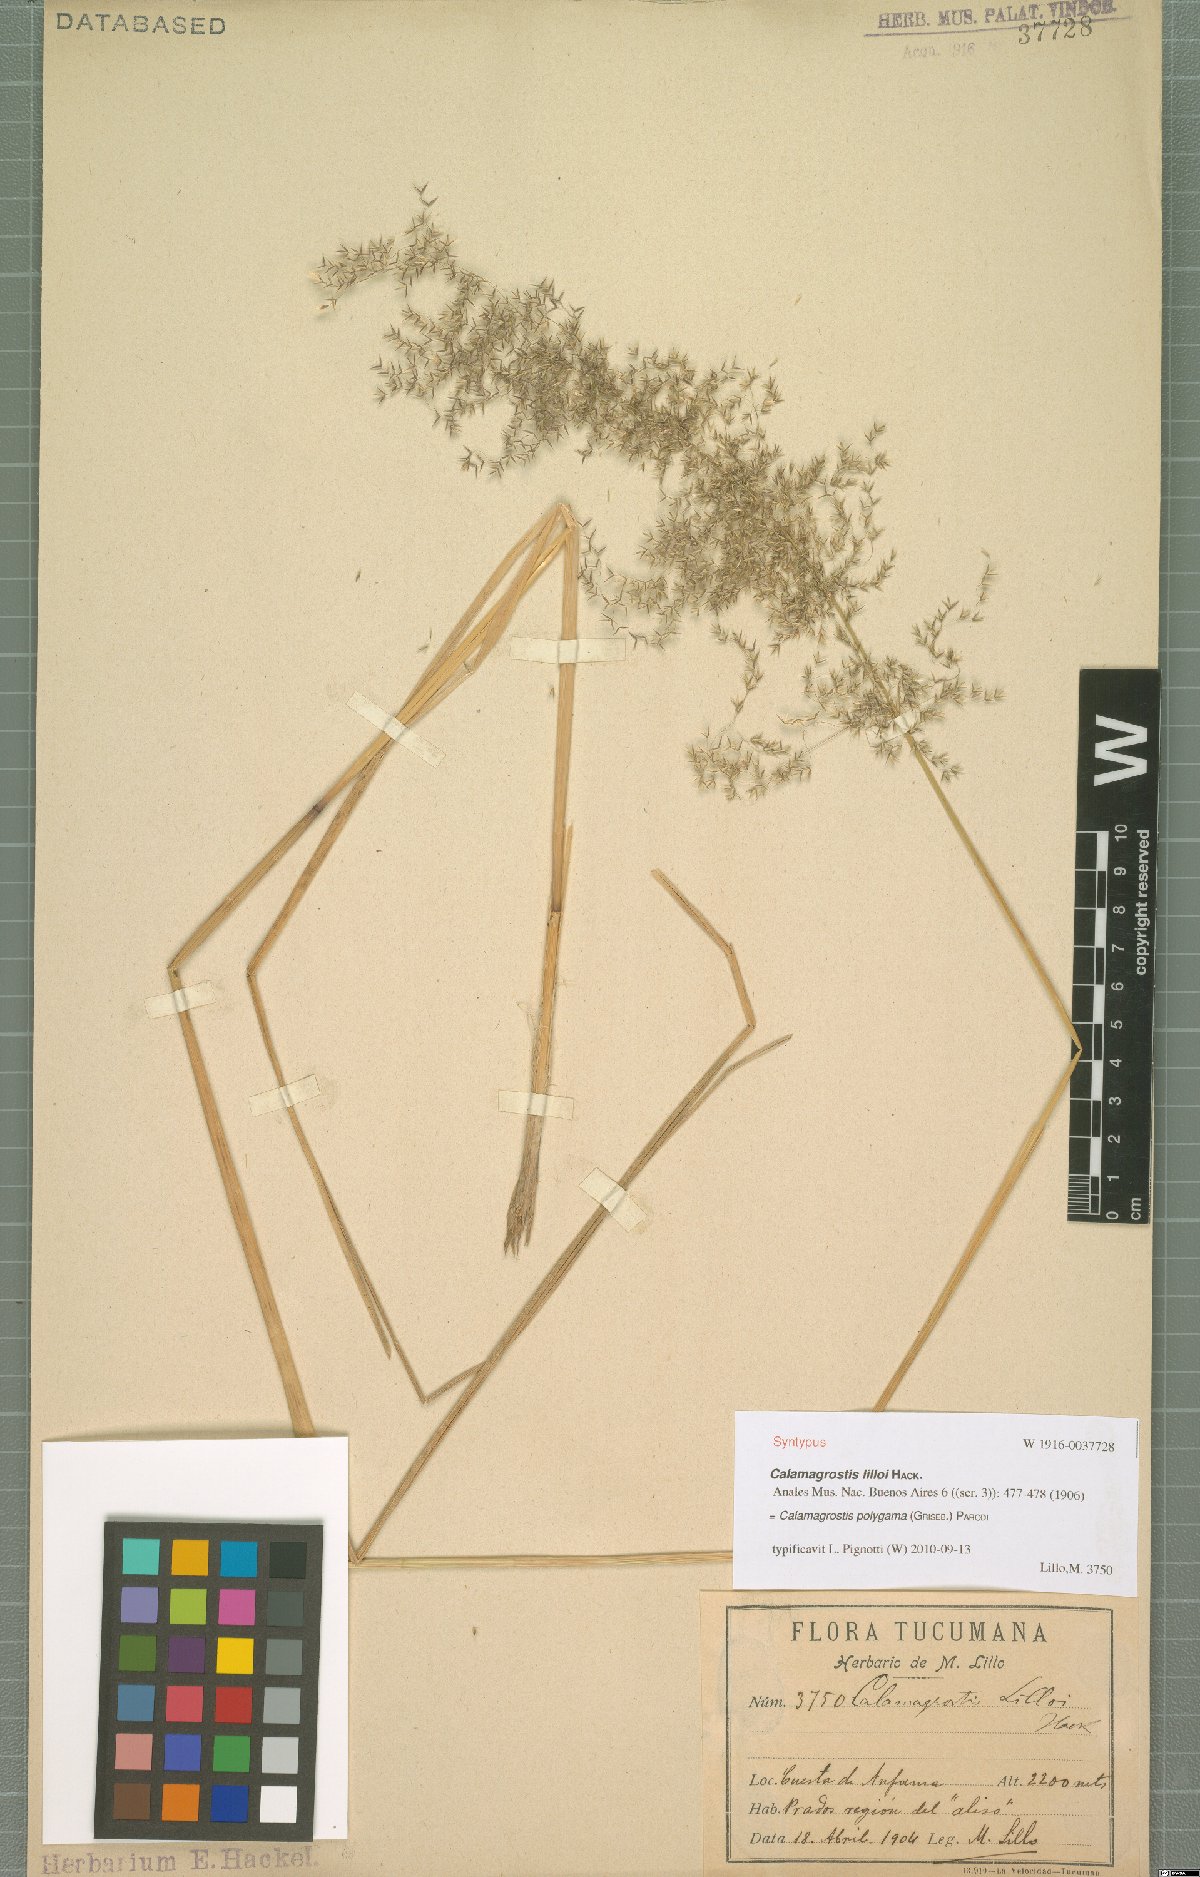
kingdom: Plantae
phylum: Tracheophyta
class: Liliopsida
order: Poales
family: Poaceae
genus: Cinnagrostis
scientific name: Cinnagrostis polygama
